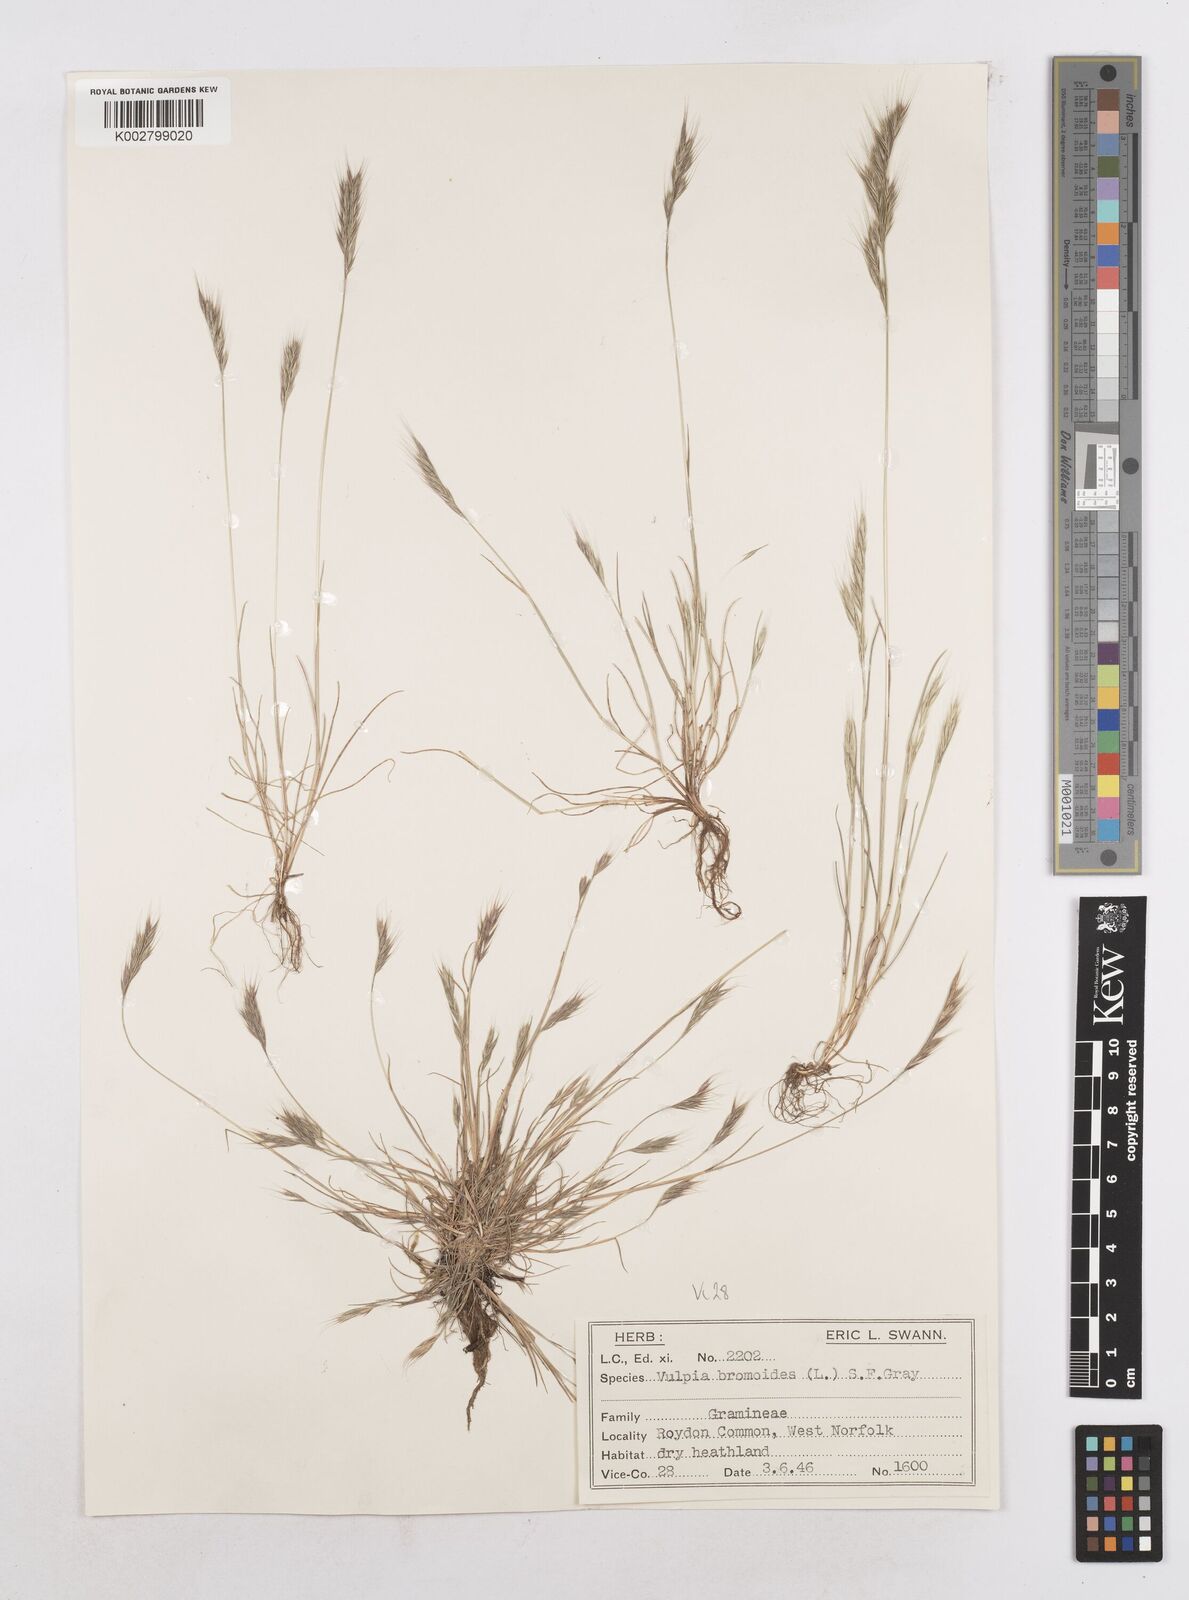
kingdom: Plantae
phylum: Tracheophyta
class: Liliopsida
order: Poales
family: Poaceae
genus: Festuca
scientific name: Festuca bromoides
